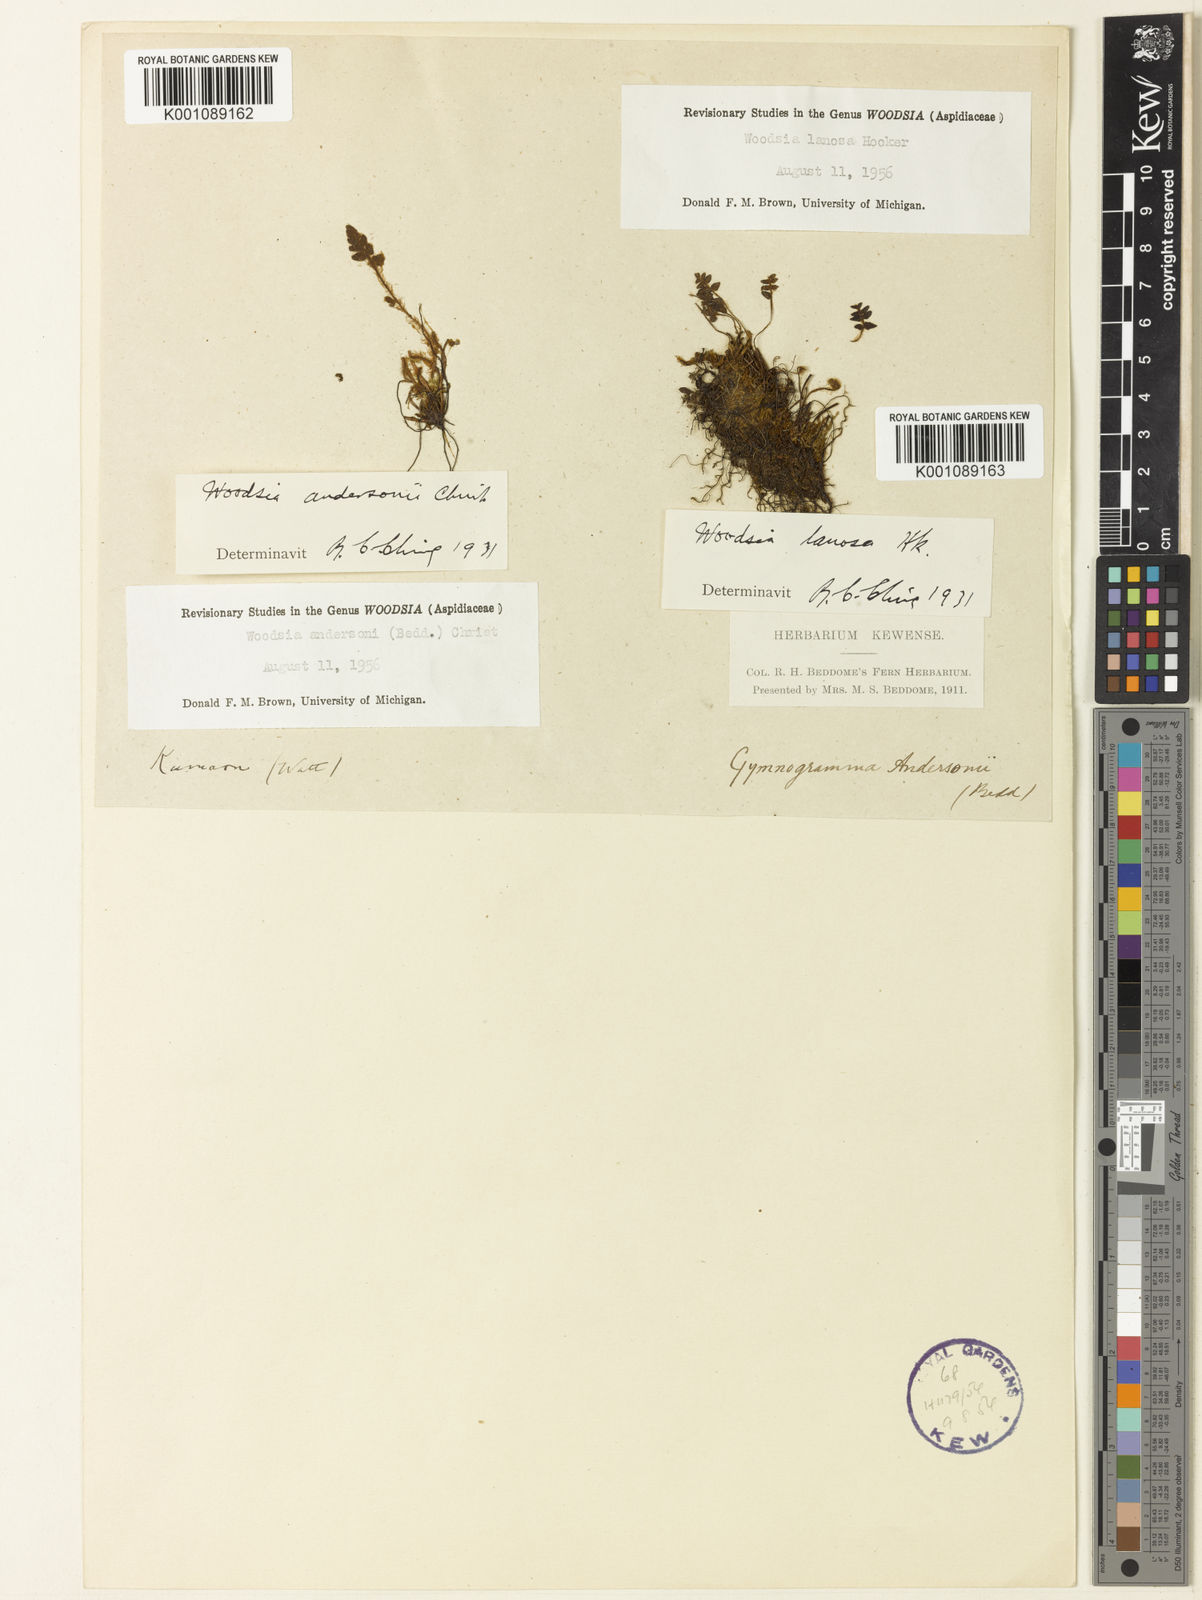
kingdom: Plantae
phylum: Tracheophyta
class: Polypodiopsida
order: Polypodiales
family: Woodsiaceae
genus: Woodsia
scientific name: Woodsia andersonii
